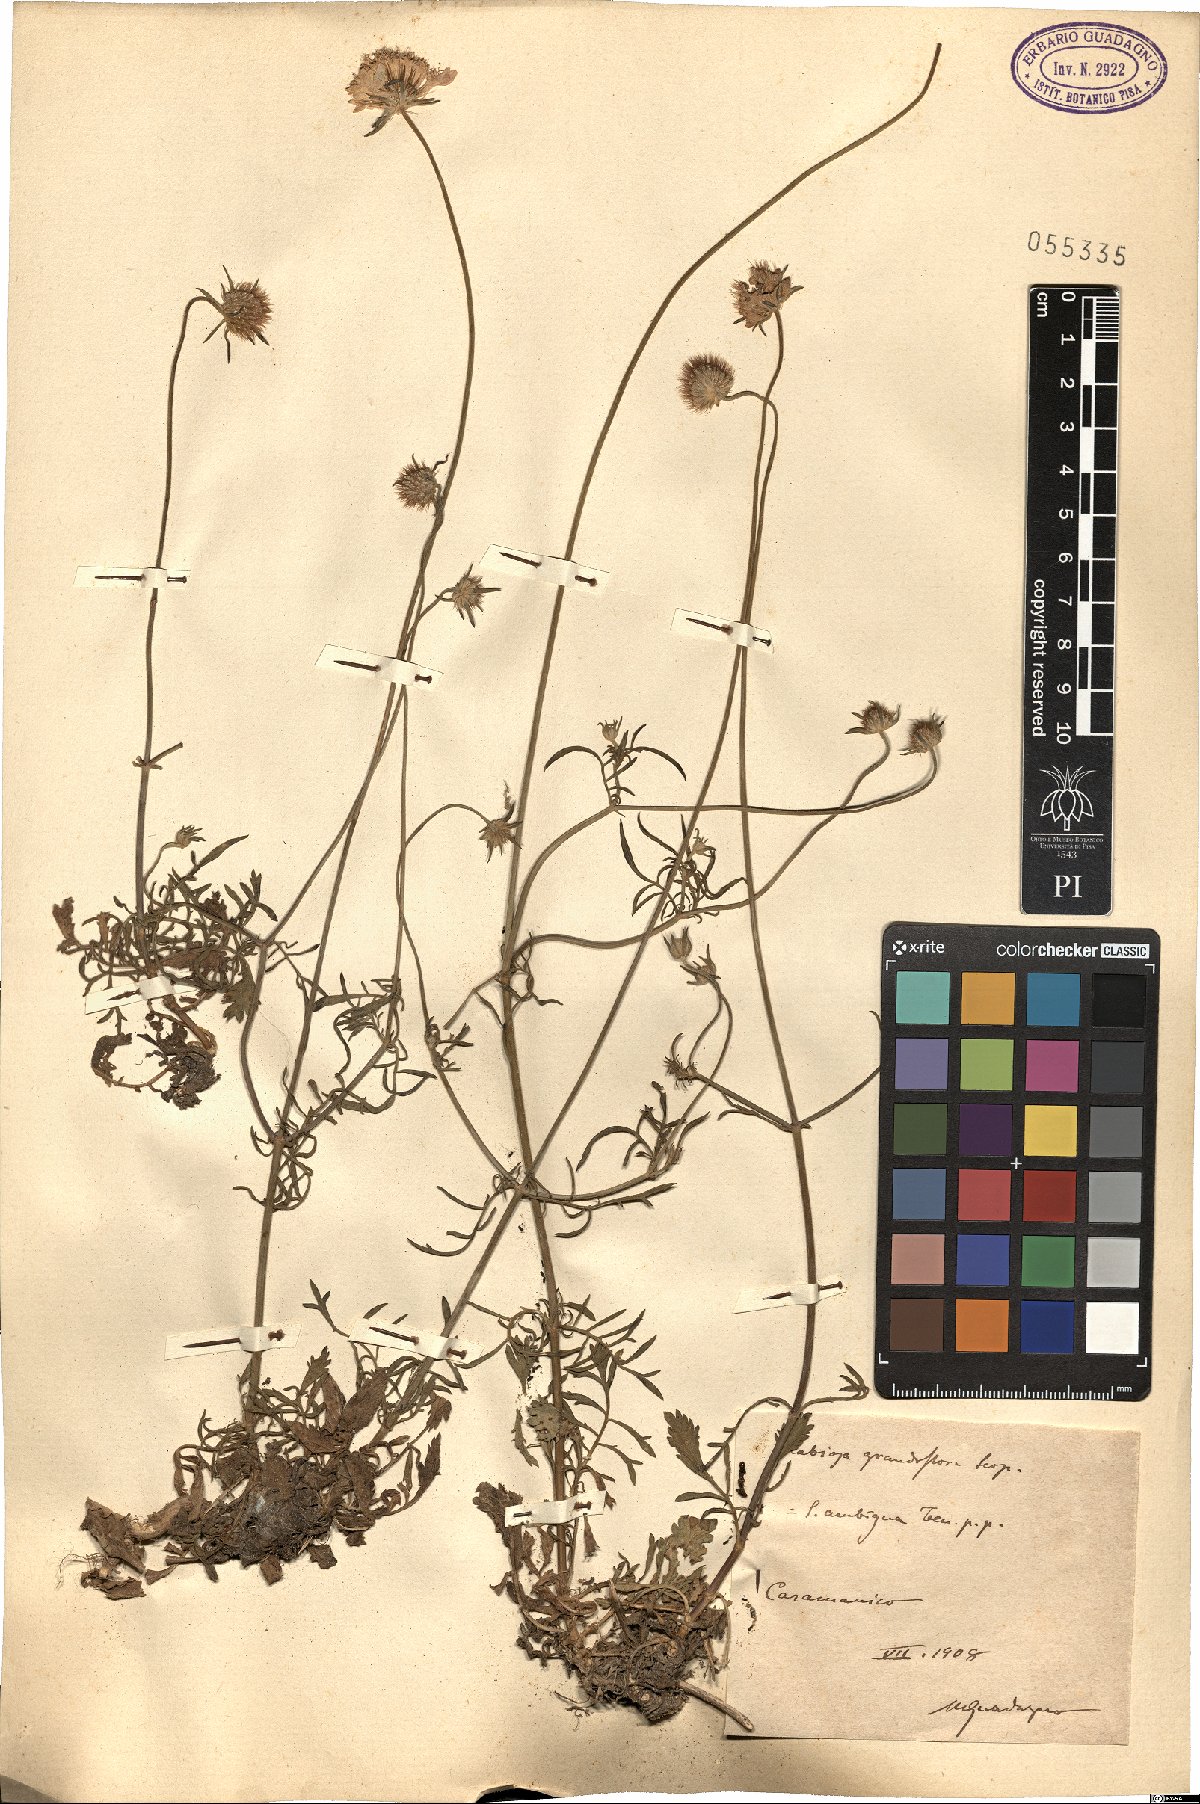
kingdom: Plantae
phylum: Tracheophyta
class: Magnoliopsida
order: Dipsacales
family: Caprifoliaceae
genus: Sixalix
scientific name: Sixalix atropurpurea
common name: Sweet scabious
